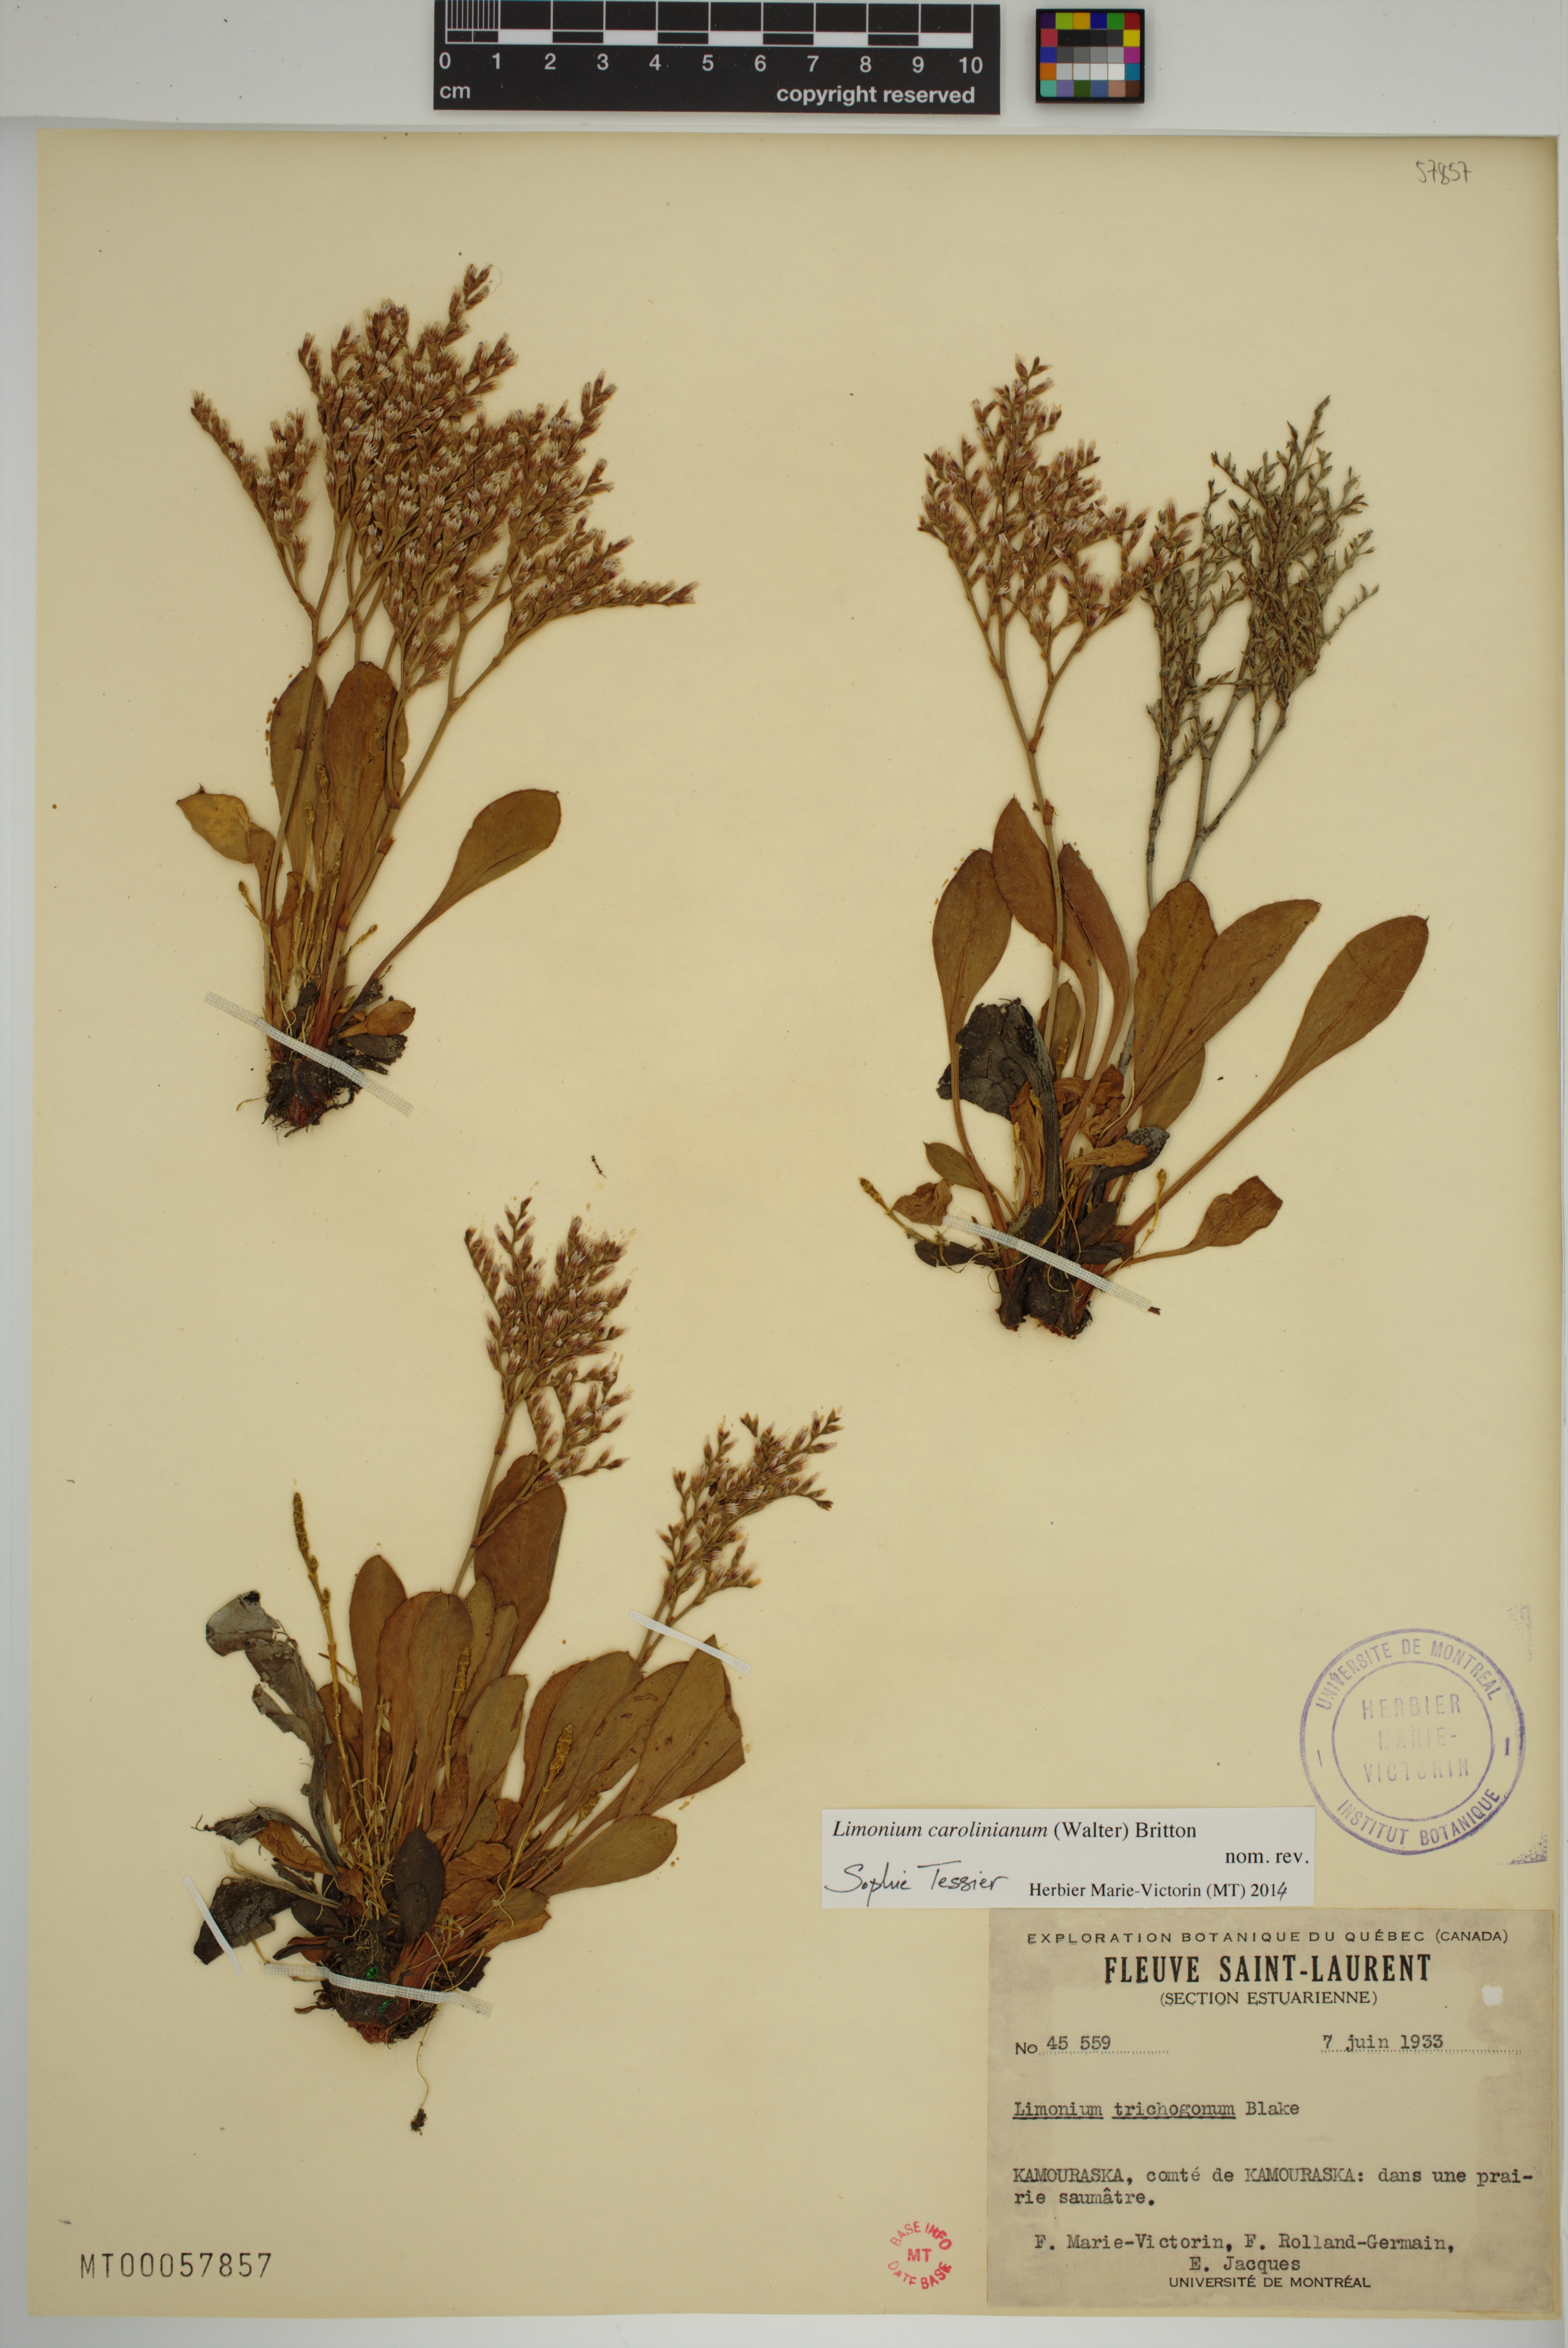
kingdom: Plantae
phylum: Tracheophyta
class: Magnoliopsida
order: Caryophyllales
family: Plumbaginaceae
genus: Limonium
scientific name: Limonium carolinianum
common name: Carolina sea lavender
